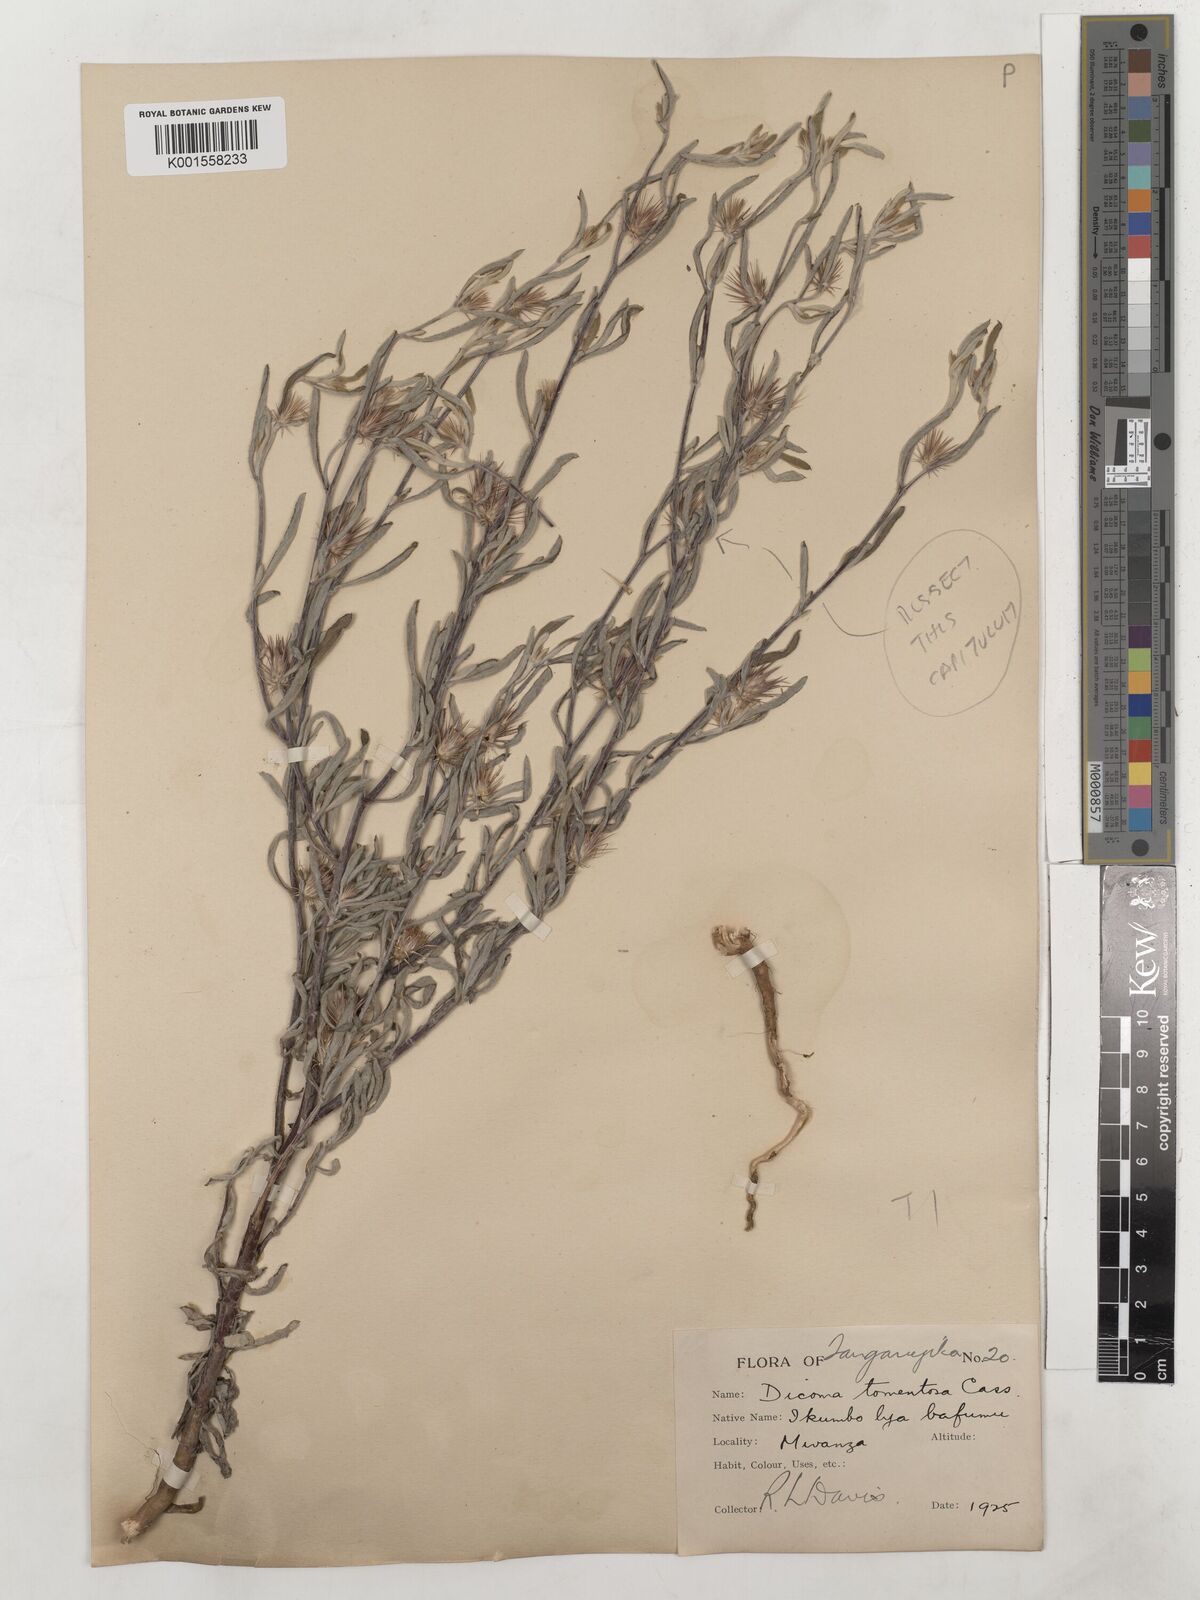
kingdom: Plantae
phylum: Tracheophyta
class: Magnoliopsida
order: Asterales
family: Asteraceae
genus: Dicoma
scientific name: Dicoma tomentosa
